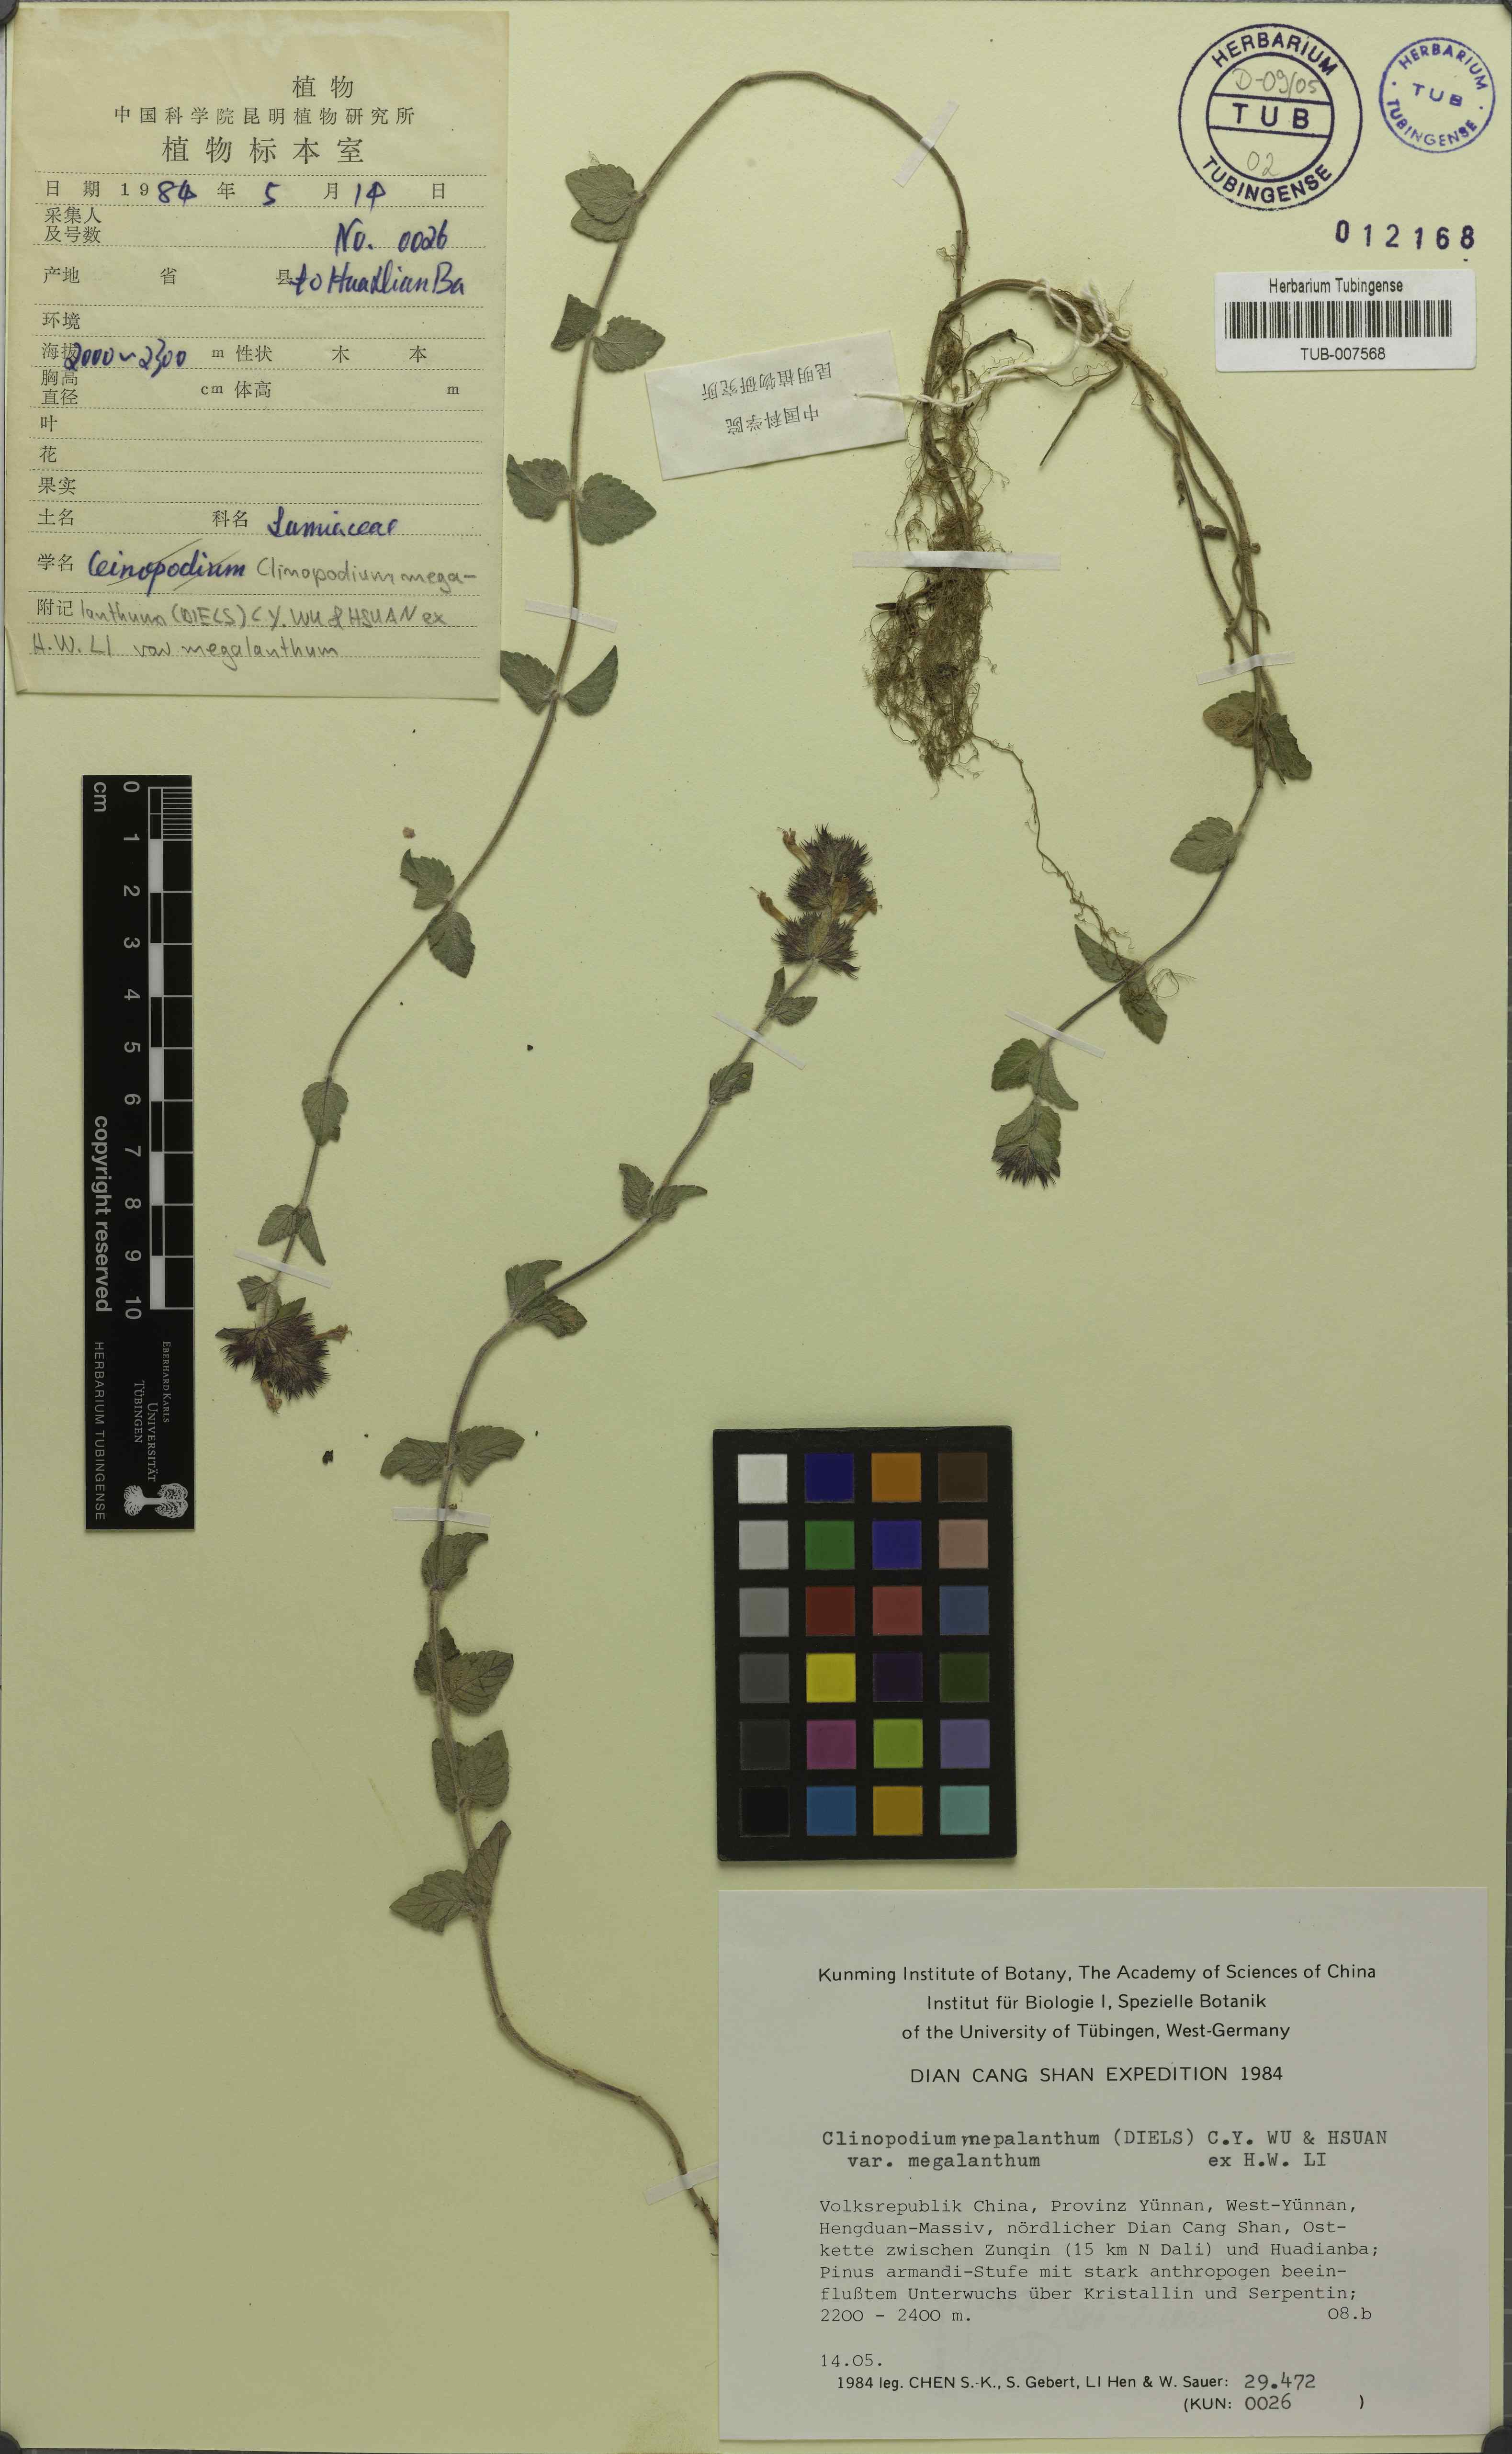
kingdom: Plantae
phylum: Tracheophyta
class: Magnoliopsida
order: Lamiales
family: Lamiaceae
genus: Clinopodium
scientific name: Clinopodium megalanthum
